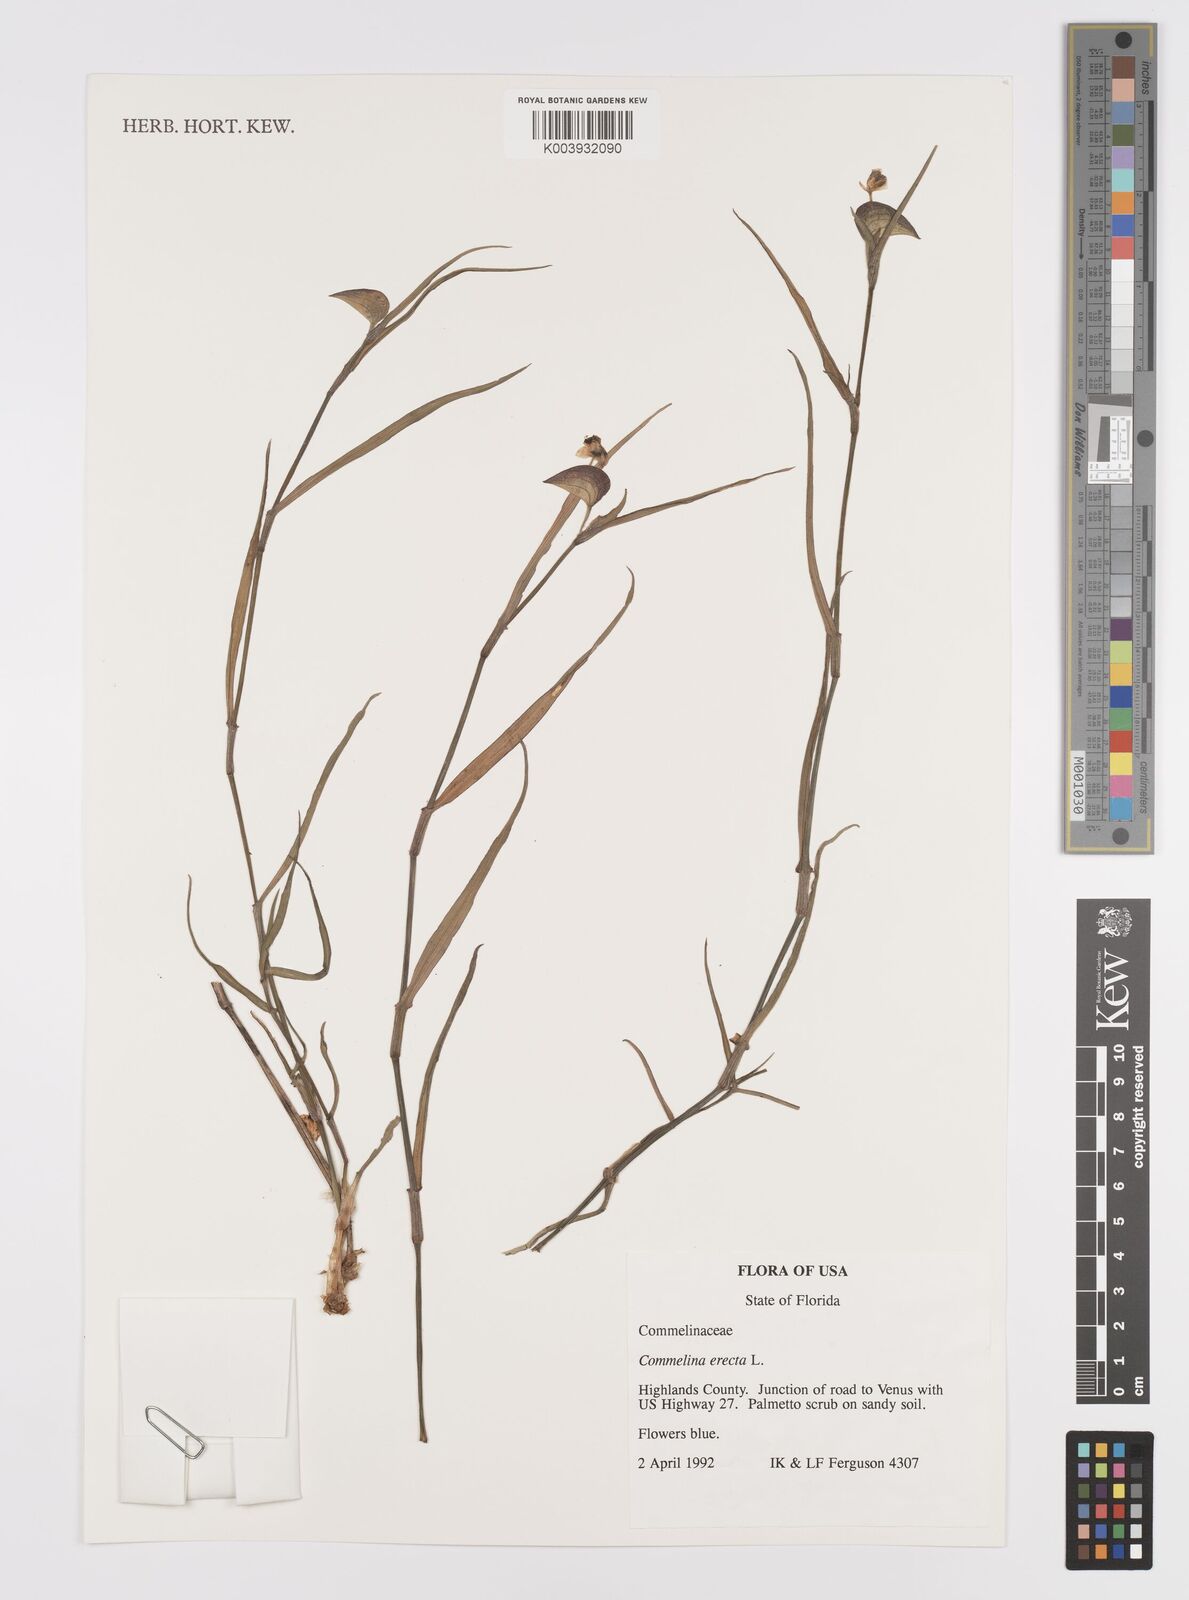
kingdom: Plantae
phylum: Tracheophyta
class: Liliopsida
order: Commelinales
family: Commelinaceae
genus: Commelina
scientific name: Commelina erecta
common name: Blousel blommetjie
